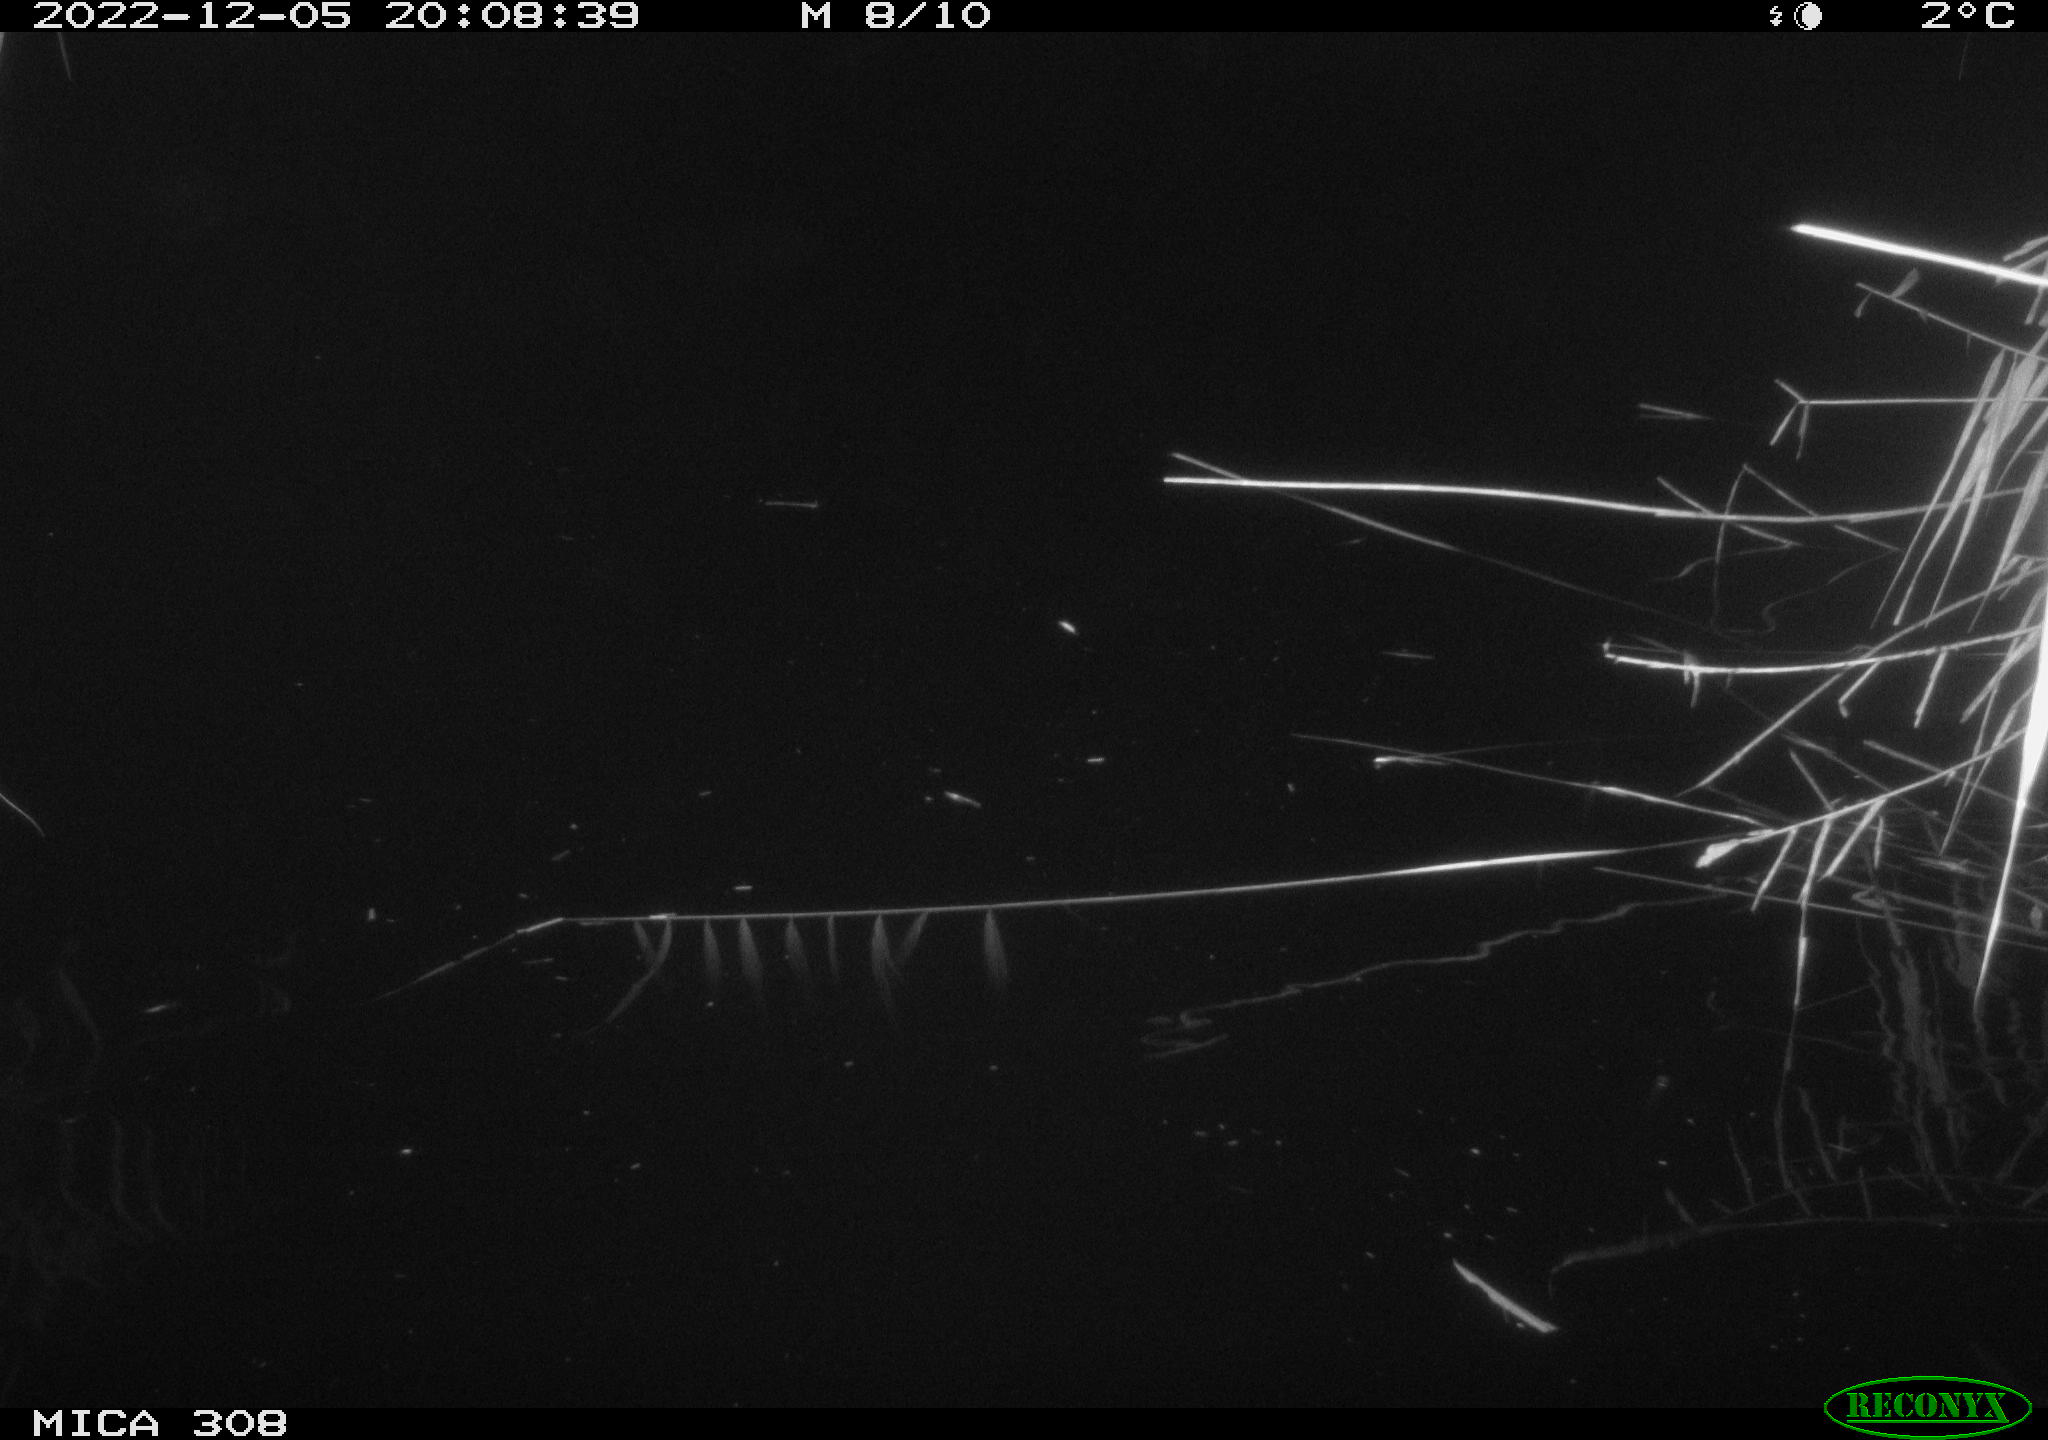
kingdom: Animalia
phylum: Chordata
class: Mammalia
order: Rodentia
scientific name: Rodentia
